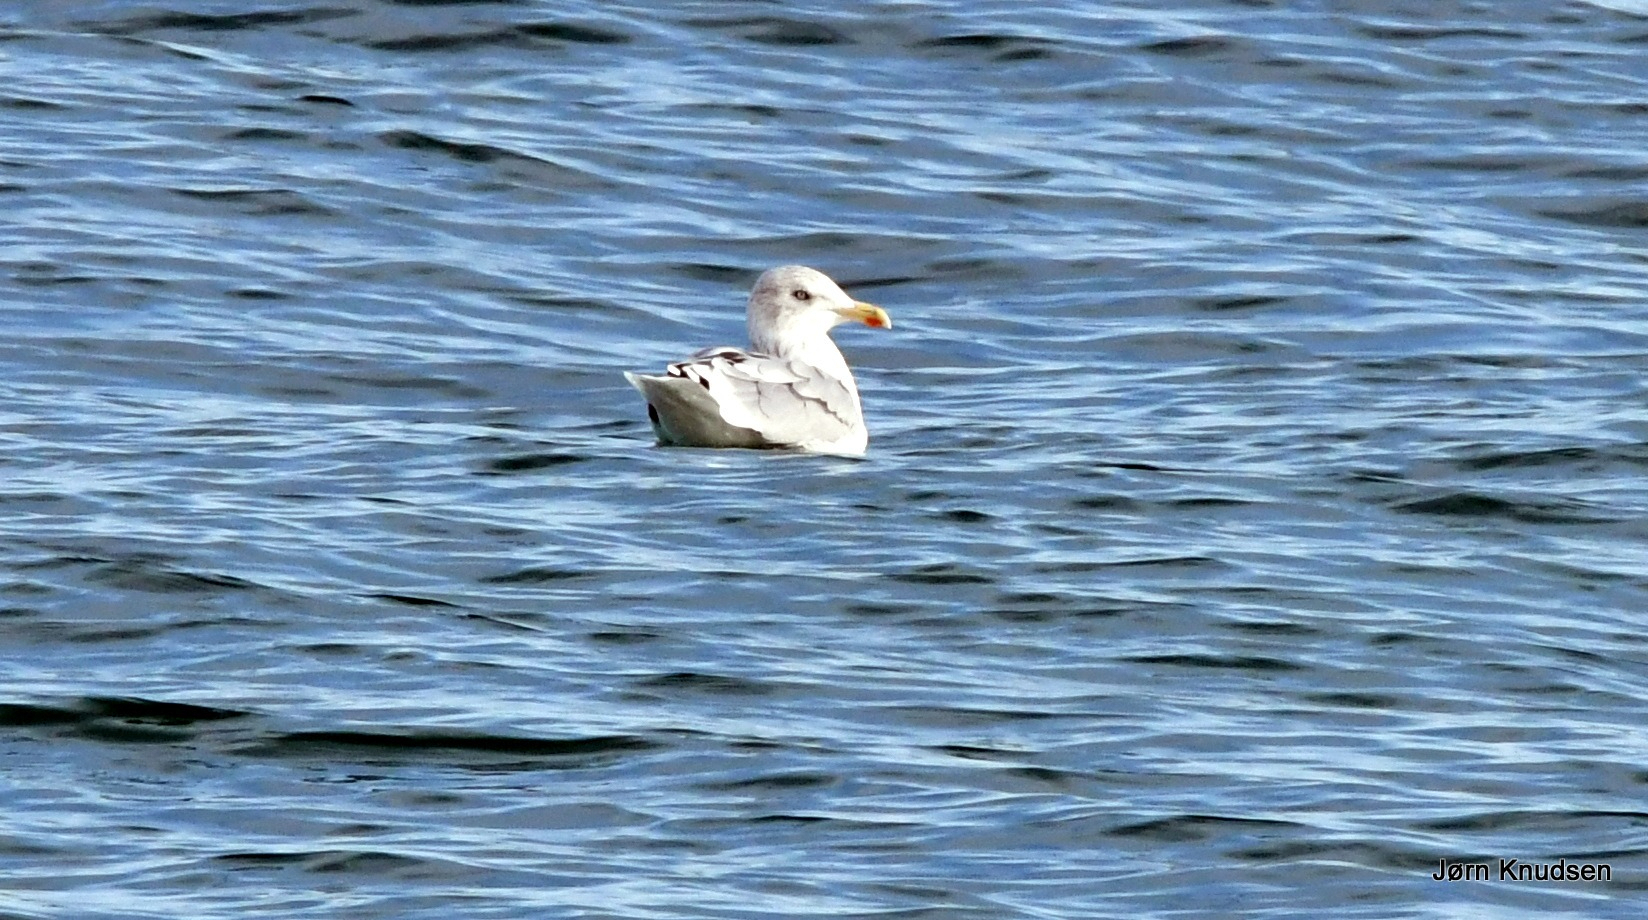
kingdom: Animalia
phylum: Chordata
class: Aves
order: Charadriiformes
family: Laridae
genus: Larus
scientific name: Larus argentatus
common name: Sølvmåge
